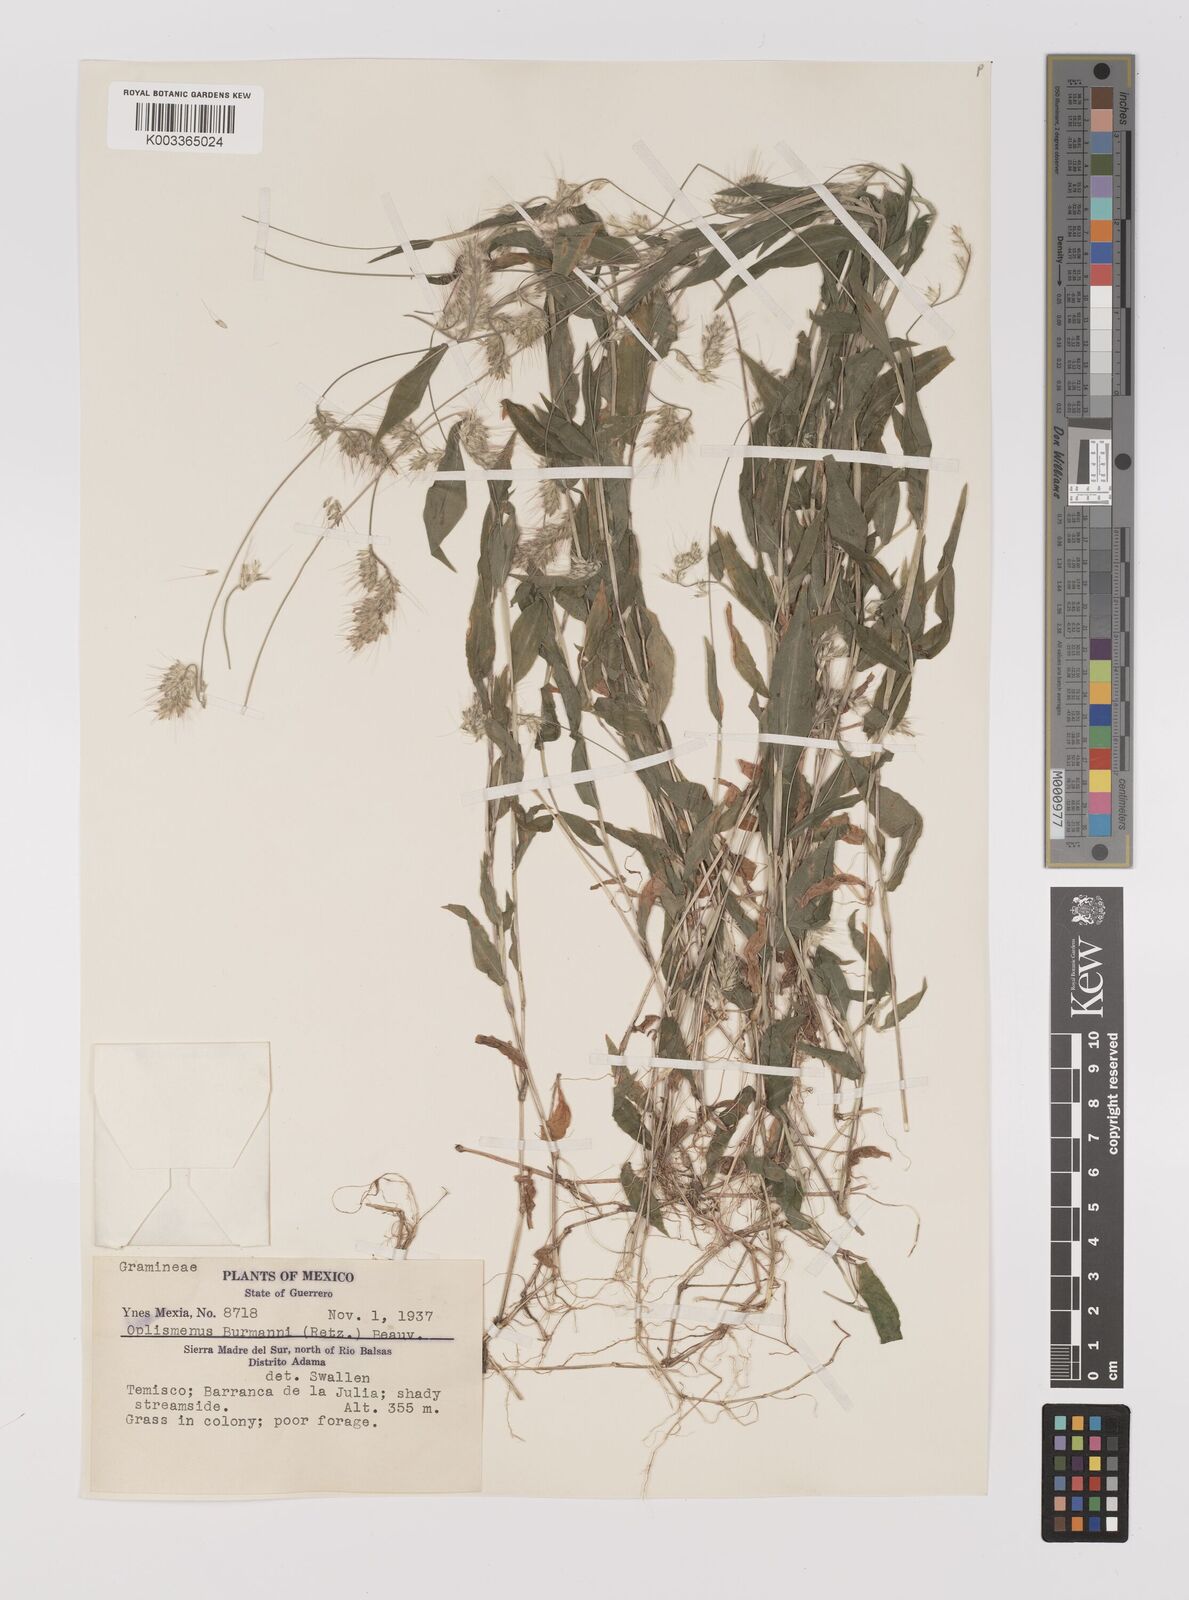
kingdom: Plantae
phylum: Tracheophyta
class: Liliopsida
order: Poales
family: Poaceae
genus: Oplismenus
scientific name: Oplismenus burmanni
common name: Burmann's basketgrass
